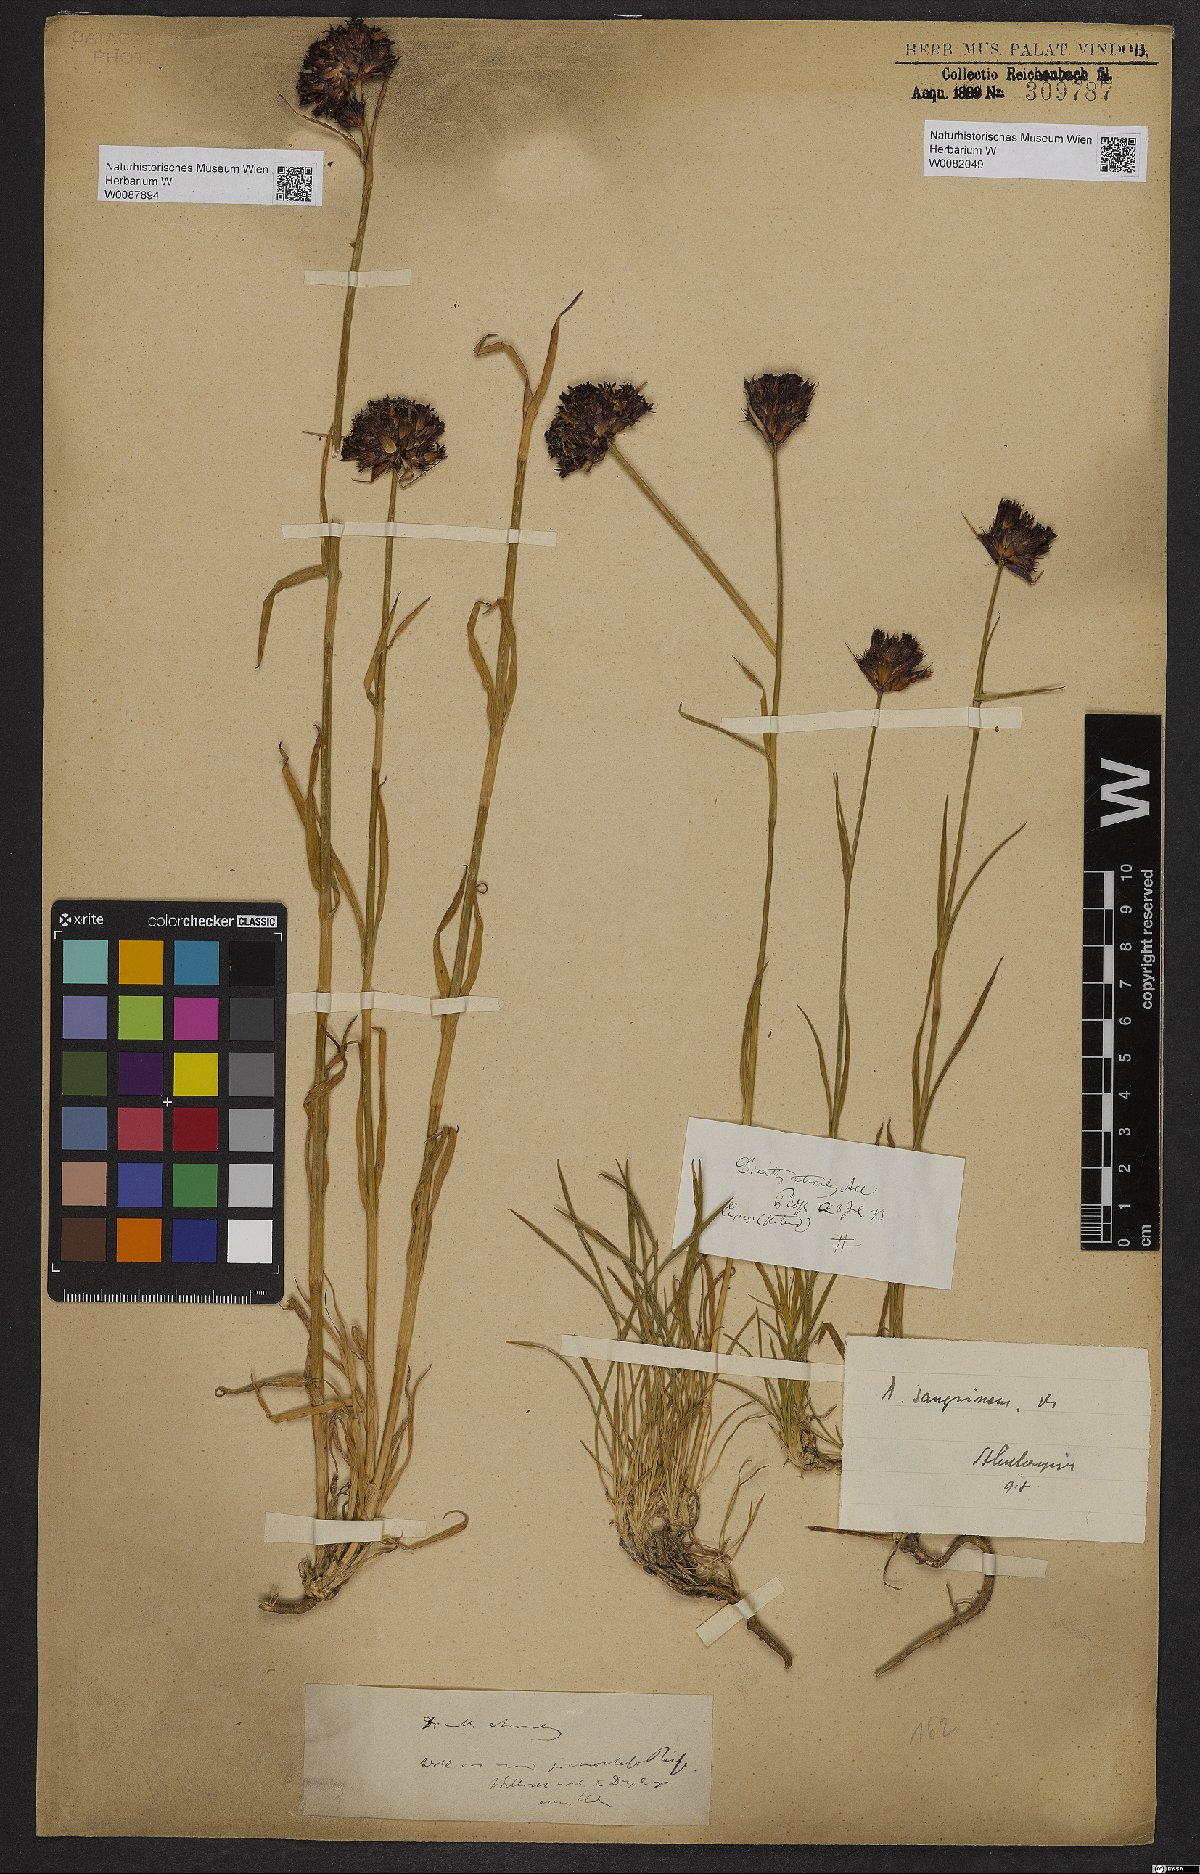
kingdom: Plantae
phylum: Tracheophyta
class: Magnoliopsida
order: Caryophyllales
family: Caryophyllaceae
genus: Dianthus
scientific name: Dianthus carthusianorum
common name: Carthusian pink
